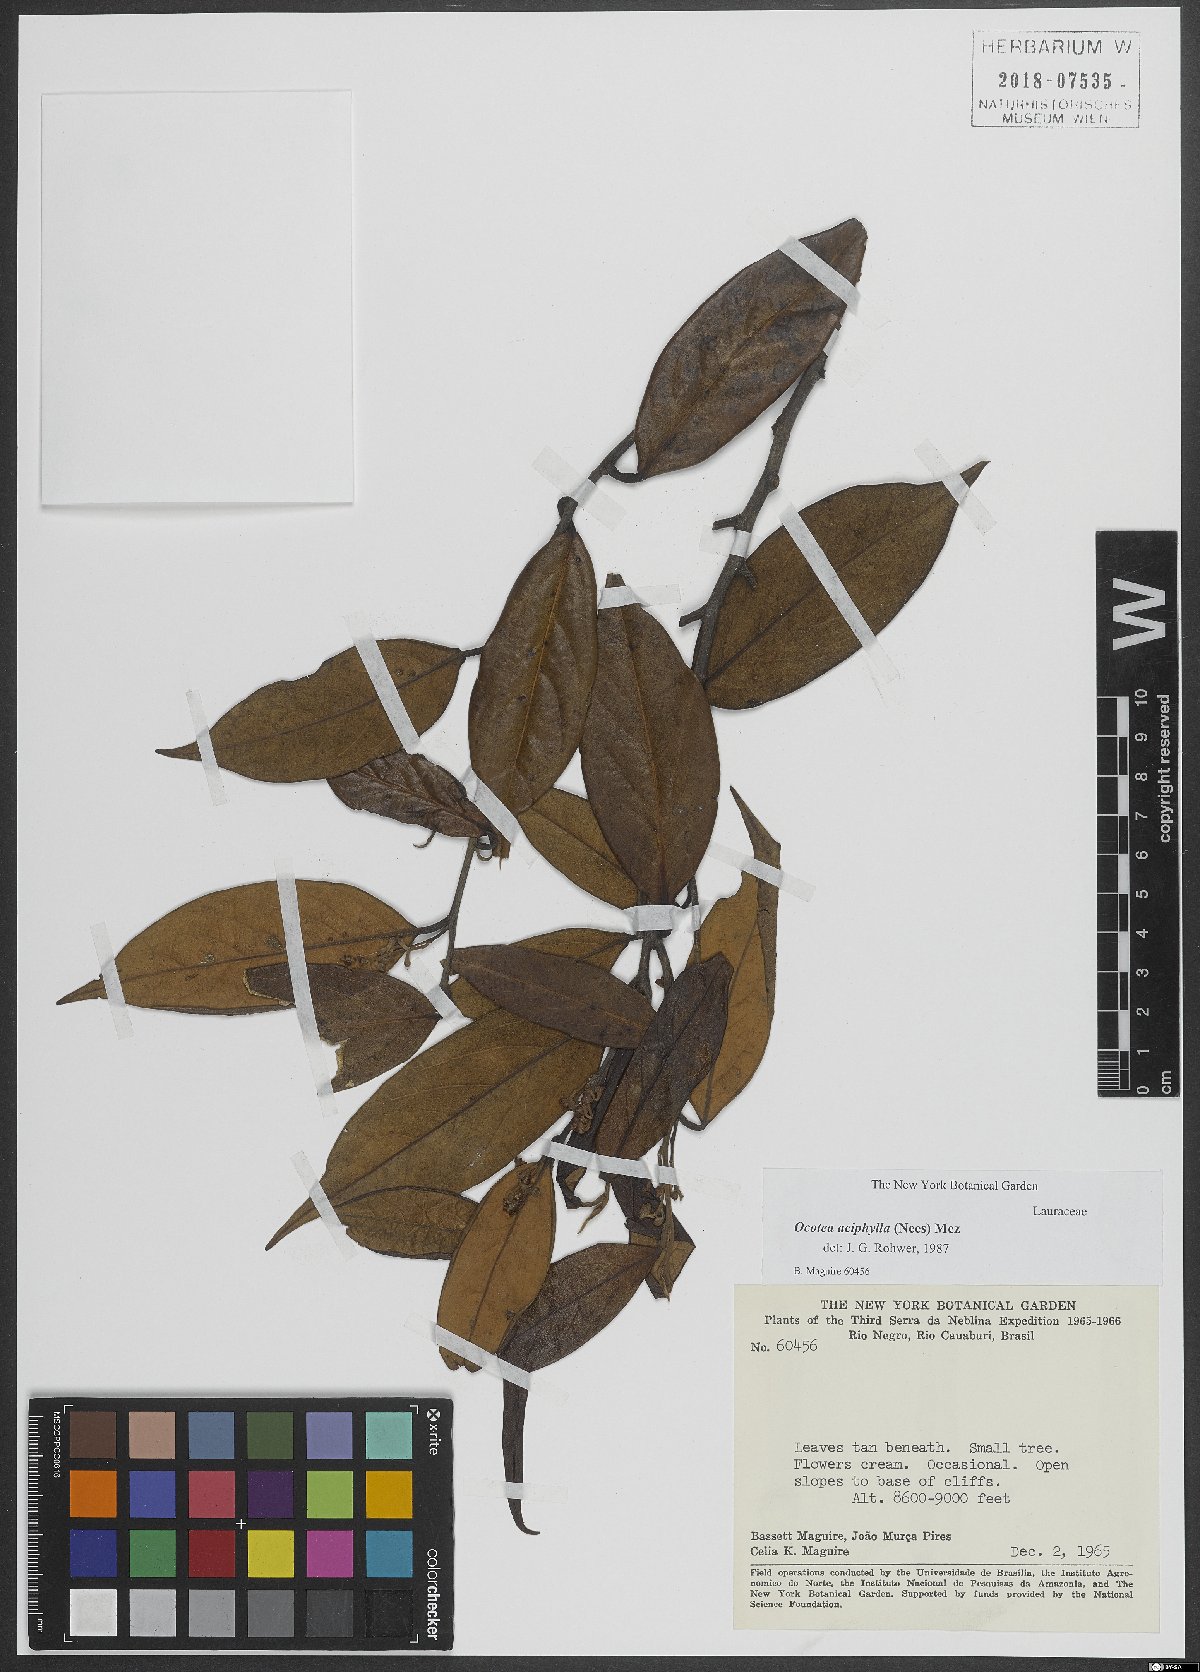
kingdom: Plantae
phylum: Tracheophyta
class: Magnoliopsida
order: Laurales
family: Lauraceae
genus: Ocotea
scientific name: Ocotea aciphylla
